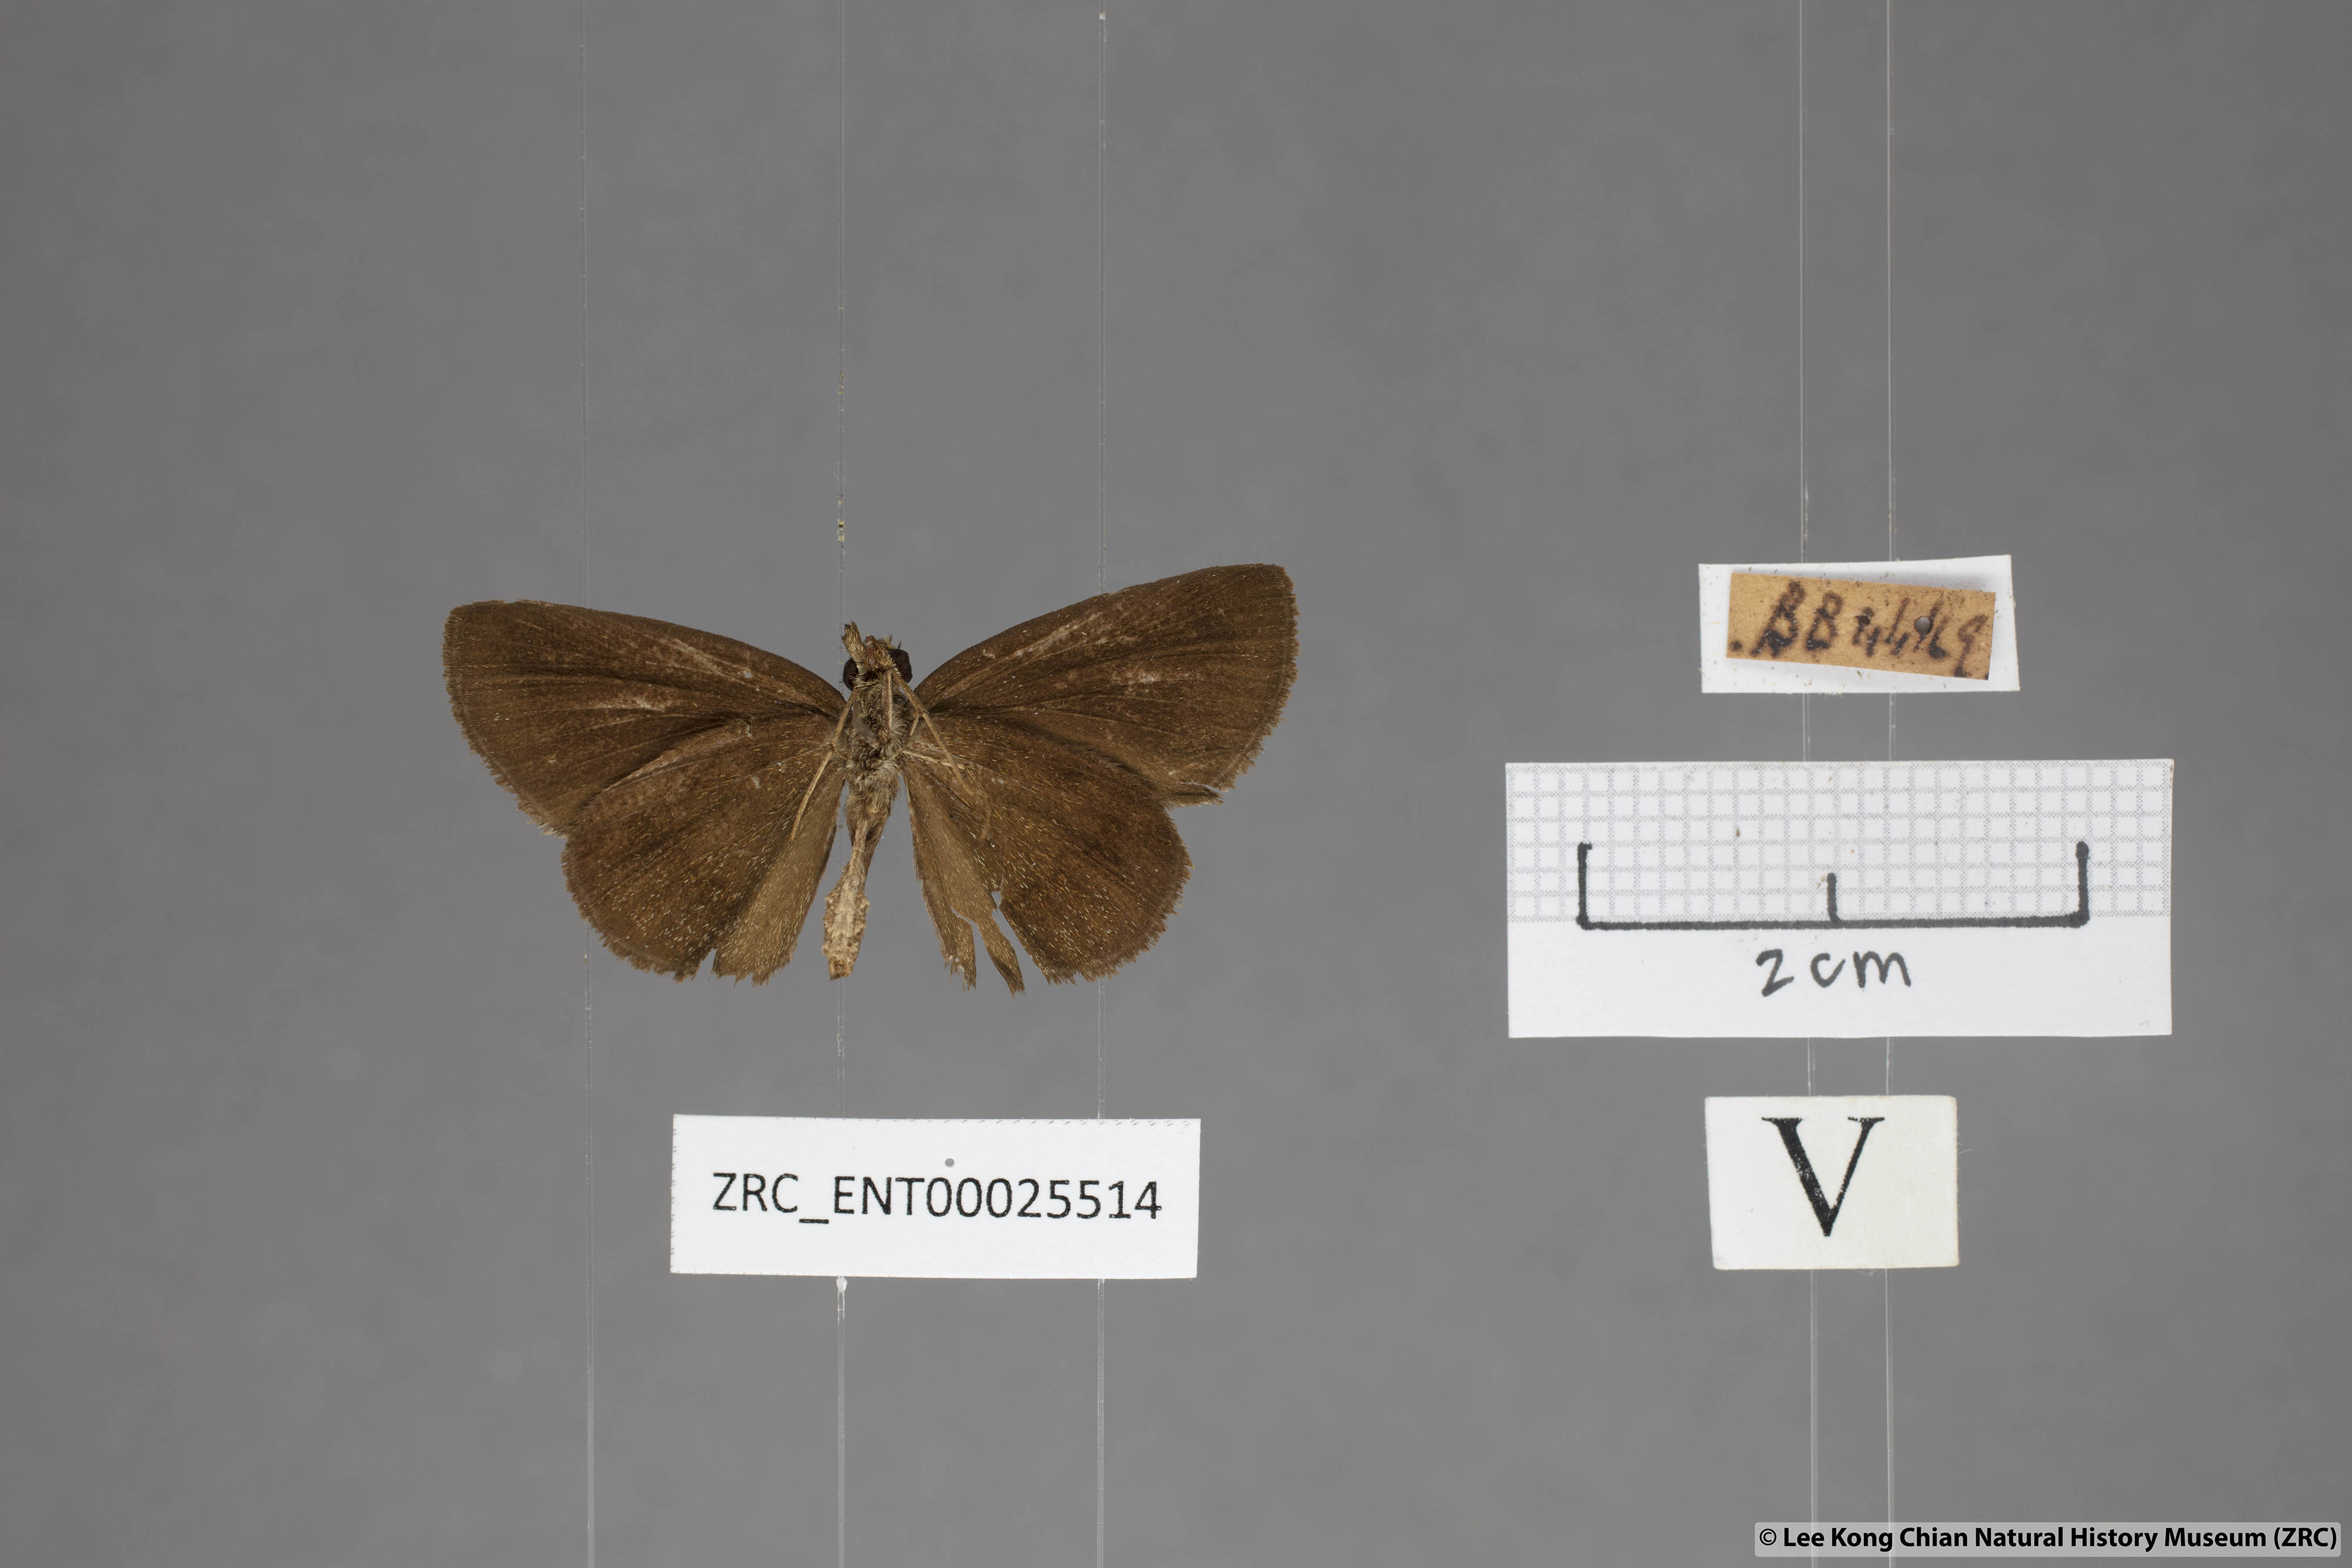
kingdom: Animalia
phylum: Arthropoda
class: Insecta
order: Lepidoptera
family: Hesperiidae
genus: Psolos
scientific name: Psolos fuligo
